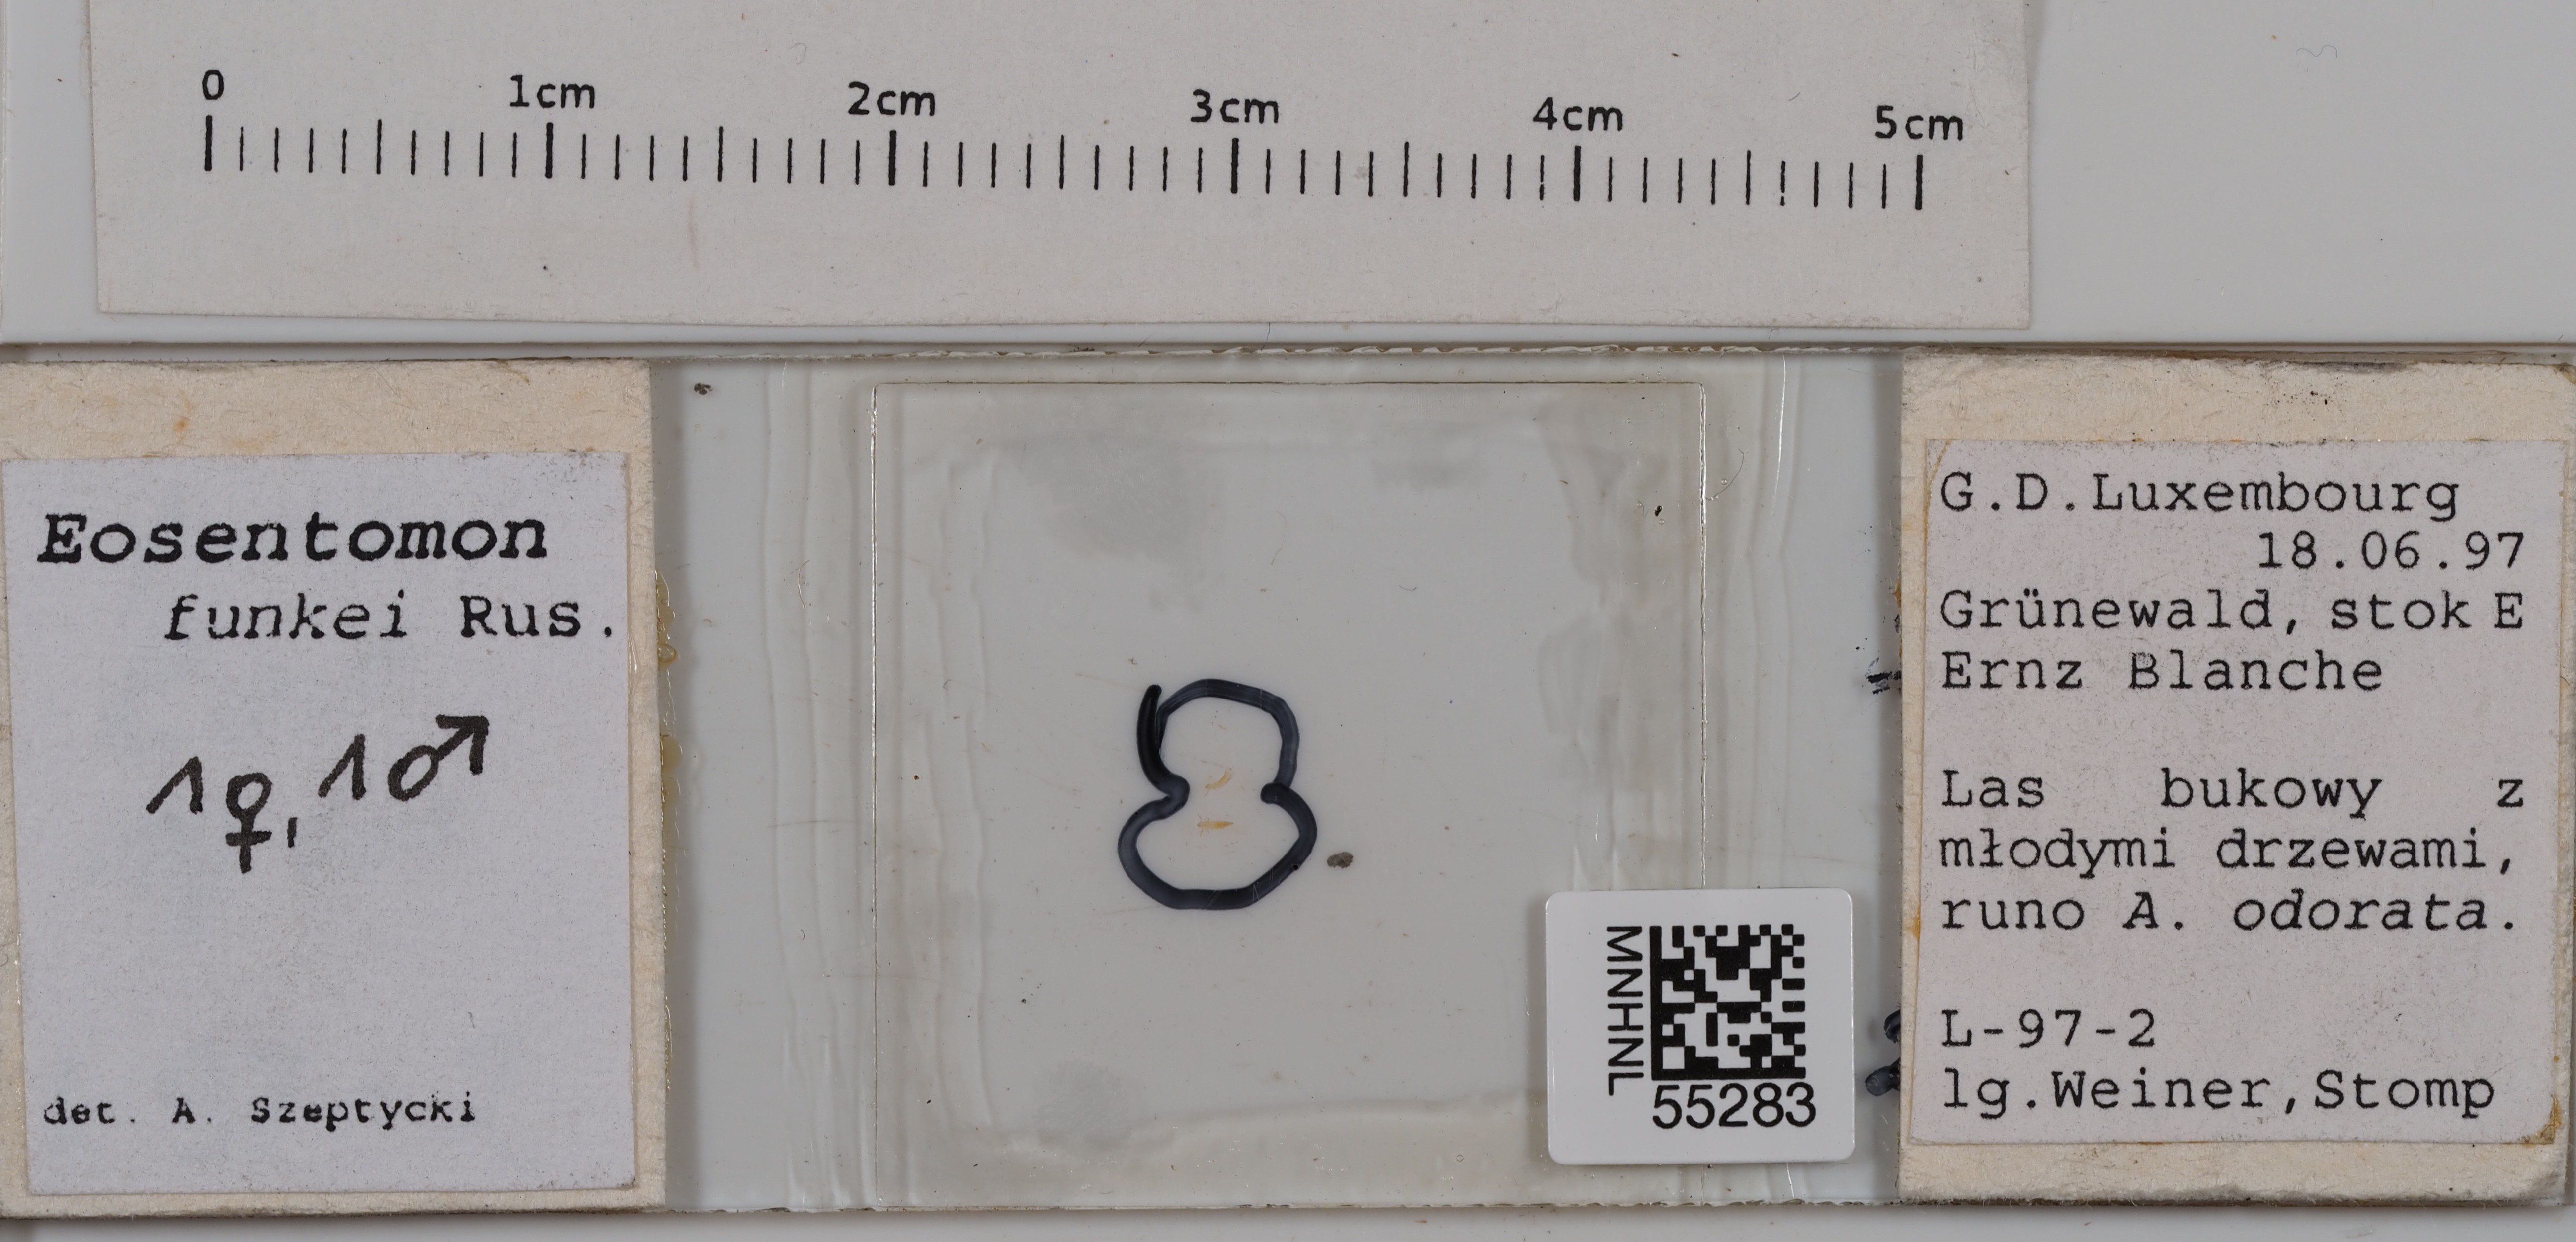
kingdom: Animalia
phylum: Arthropoda
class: Protura
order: Protura
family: Eosentomidae
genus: Eosentomon
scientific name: Eosentomon funkei
